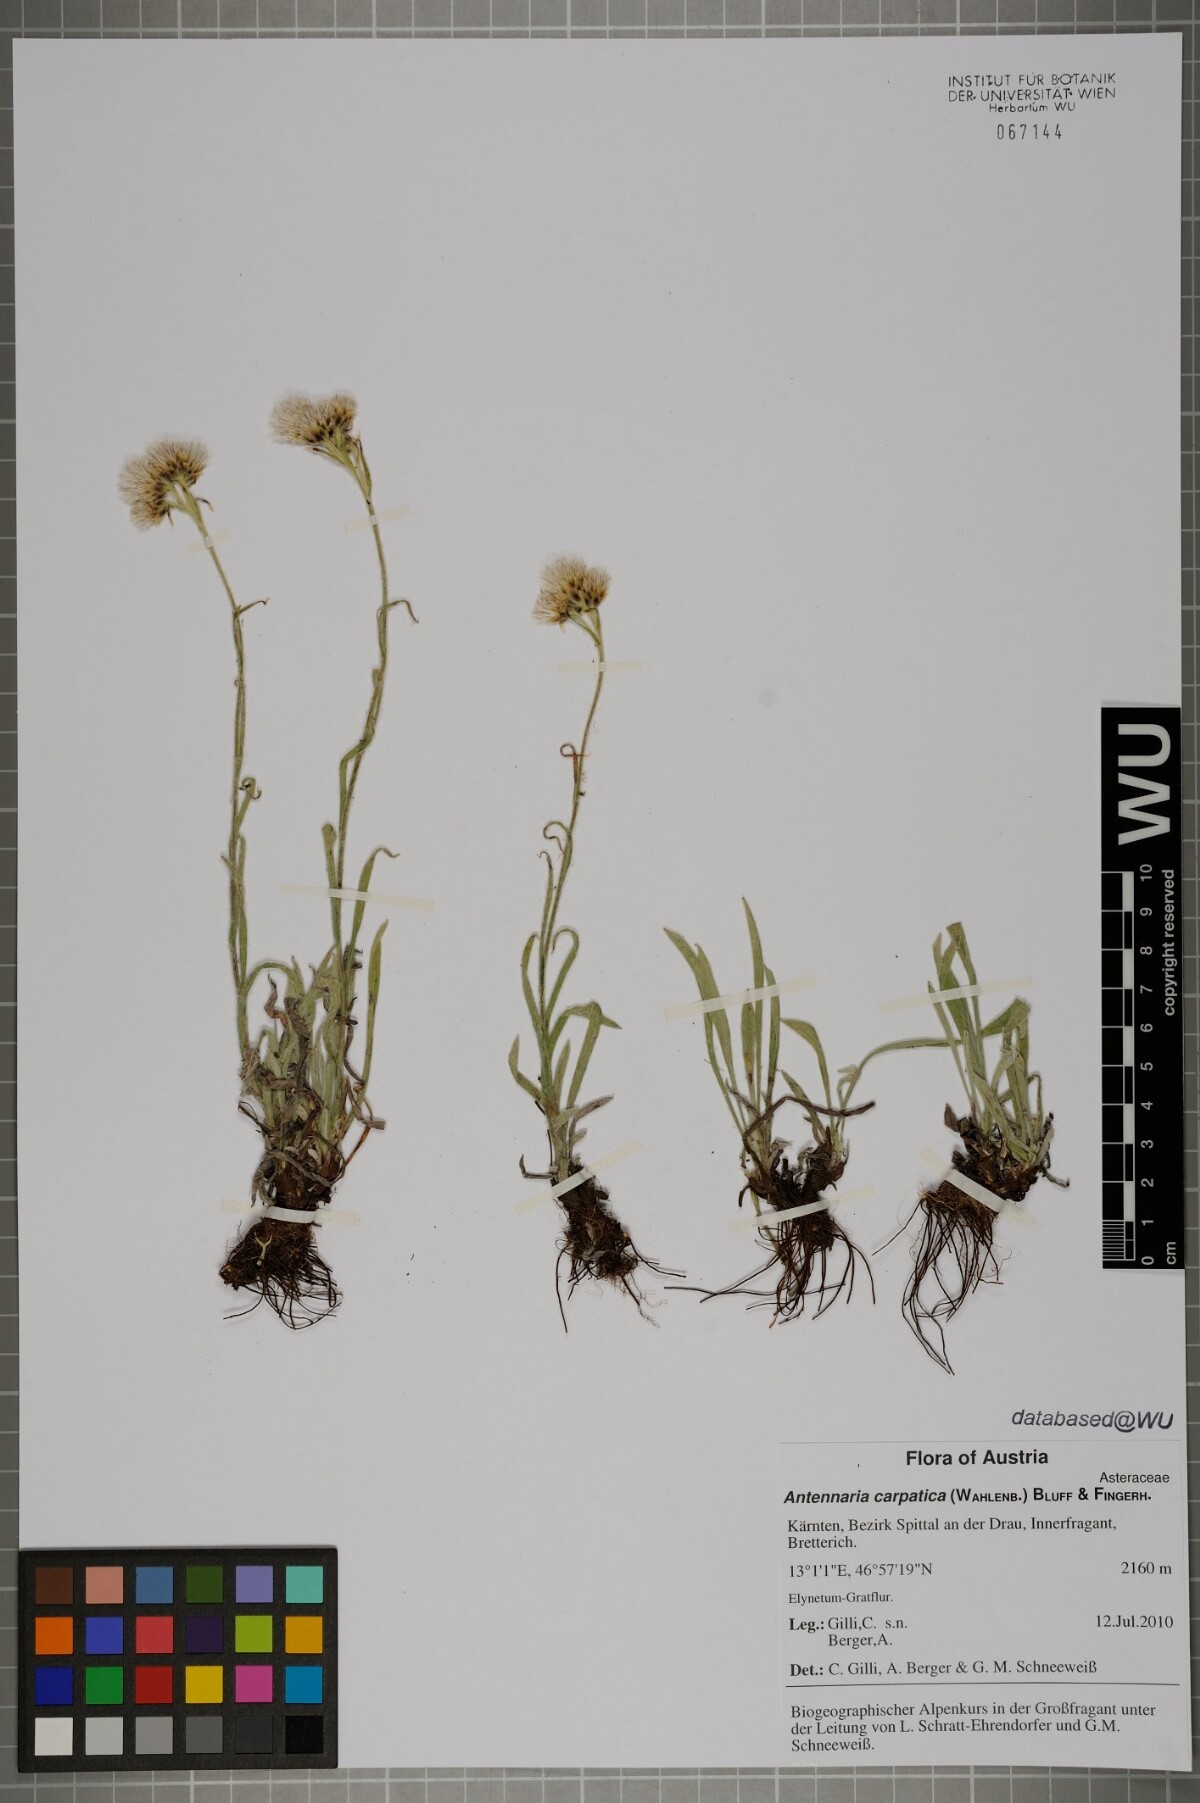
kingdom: Plantae
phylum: Tracheophyta
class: Magnoliopsida
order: Asterales
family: Asteraceae
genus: Antennaria
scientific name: Antennaria carpatica
